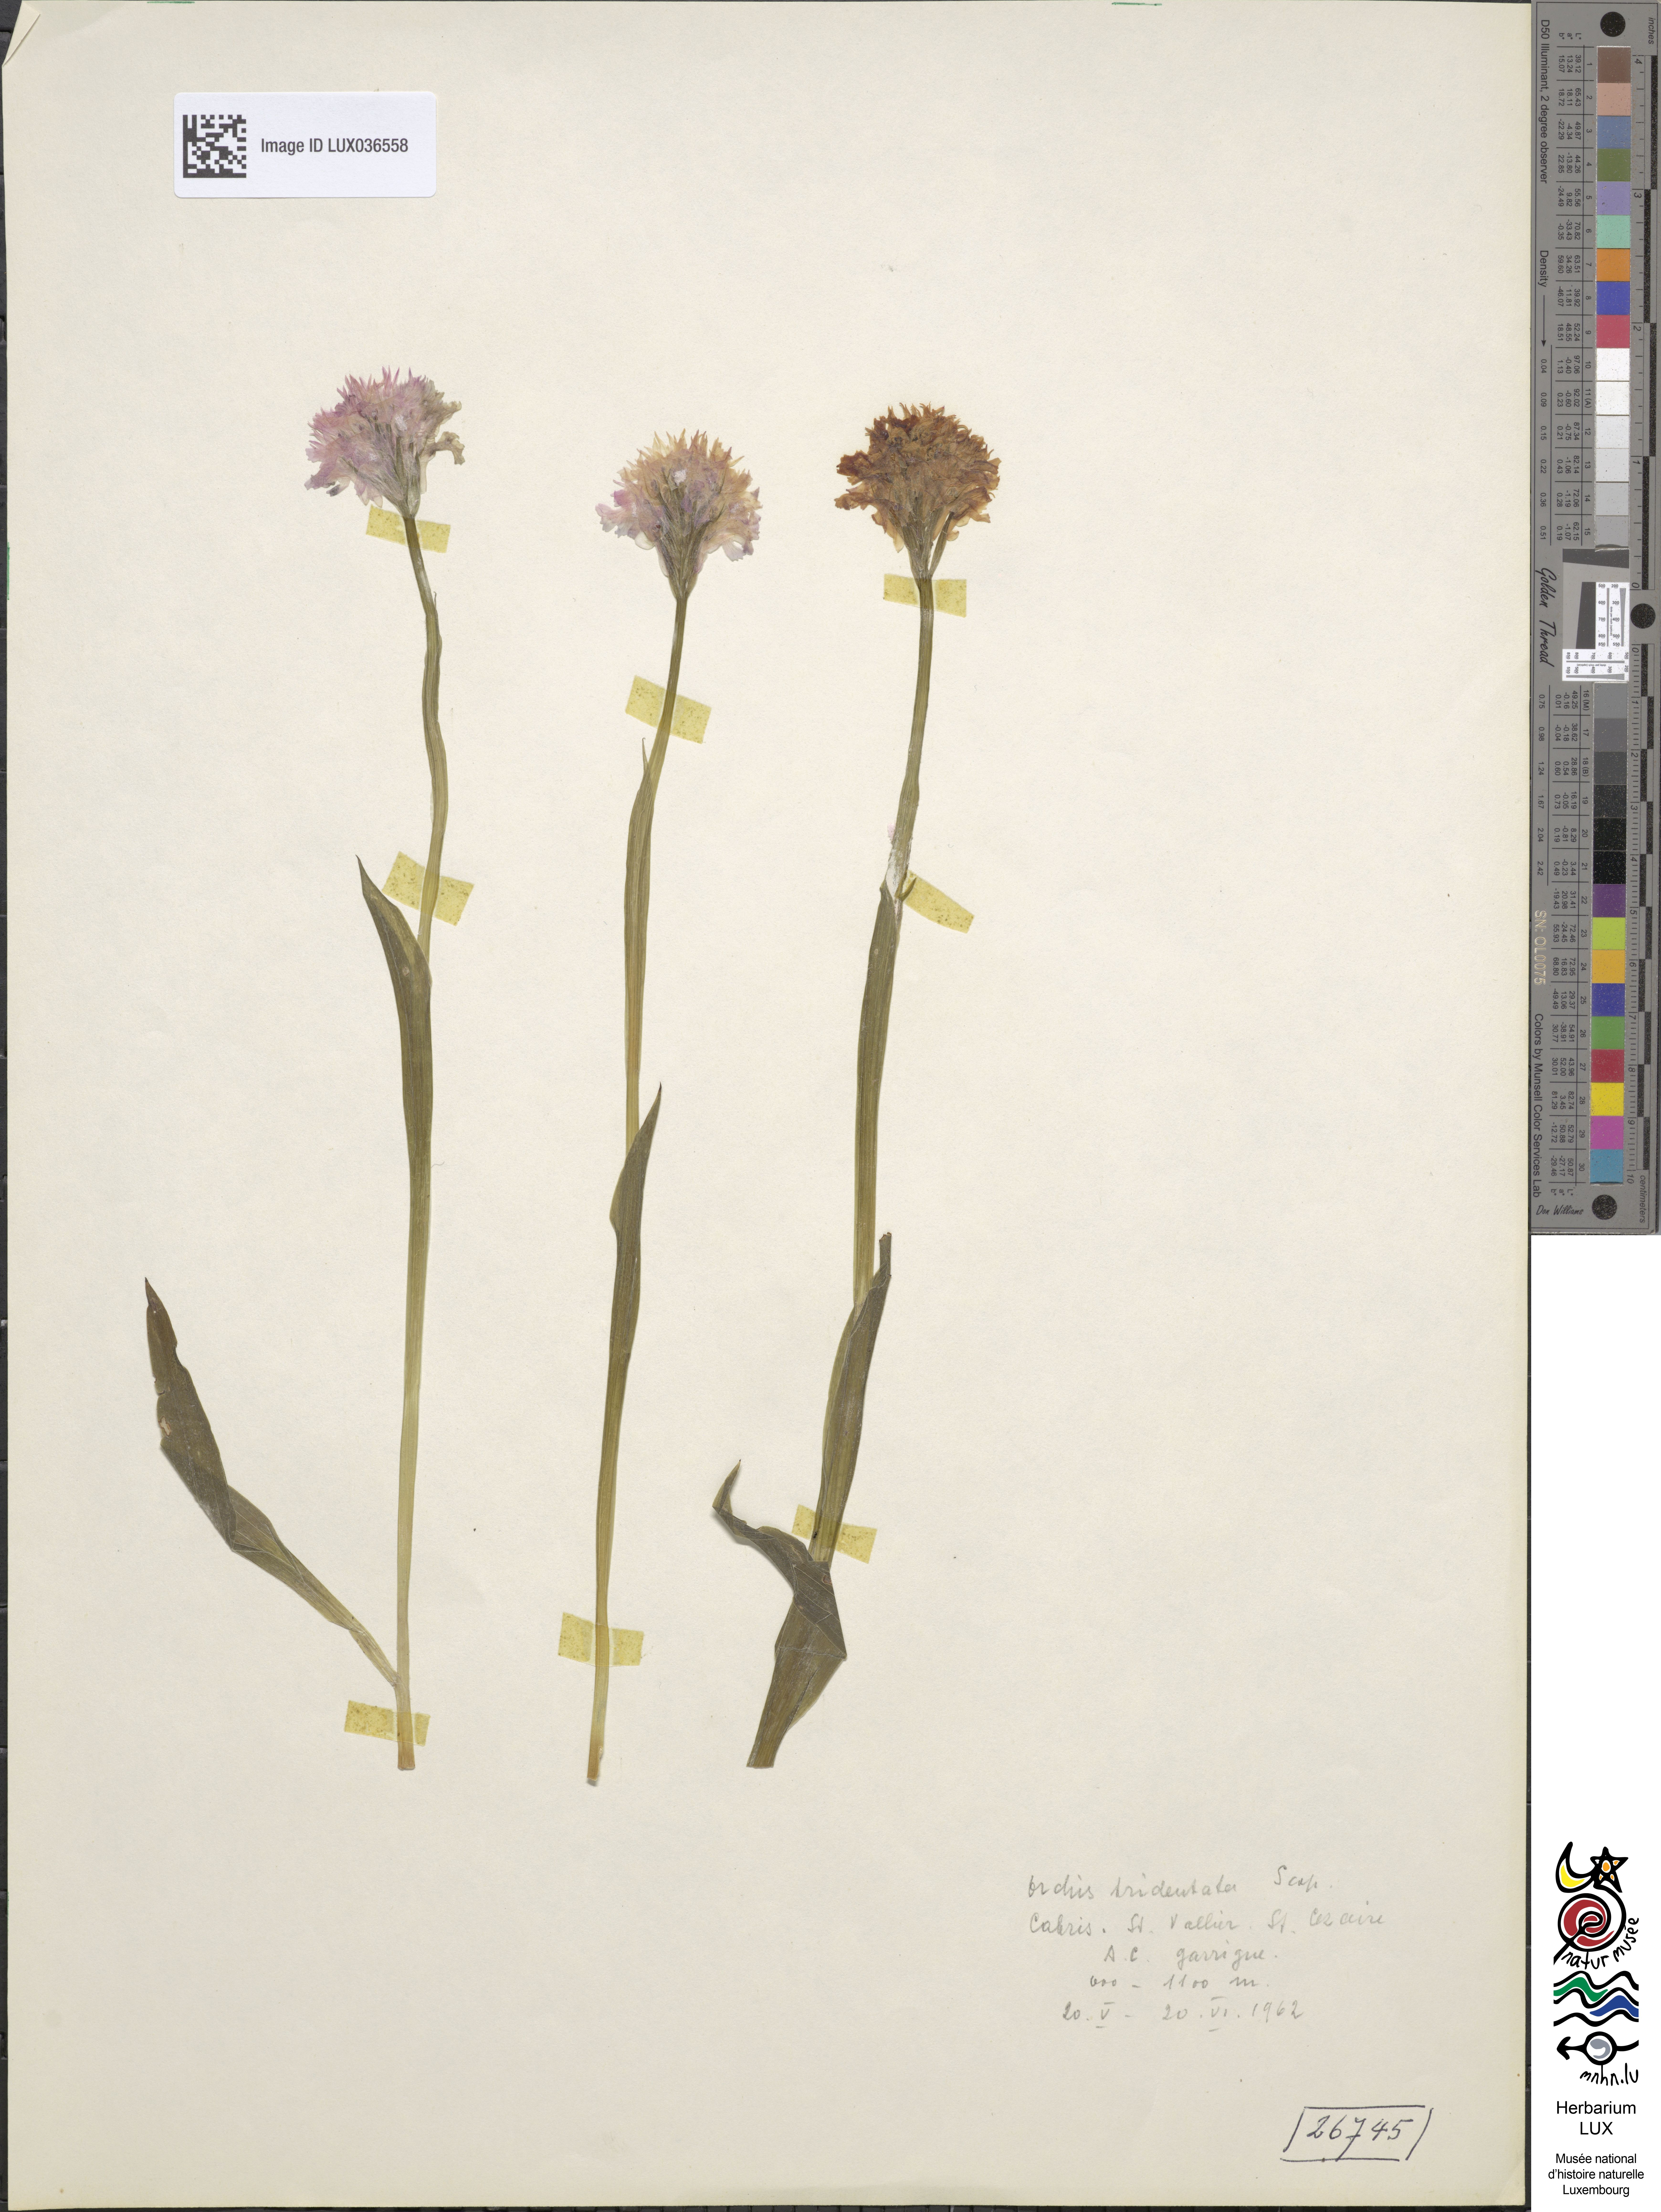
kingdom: Plantae
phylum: Tracheophyta
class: Liliopsida
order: Asparagales
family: Orchidaceae
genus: Neotinea
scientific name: Neotinea tridentata
